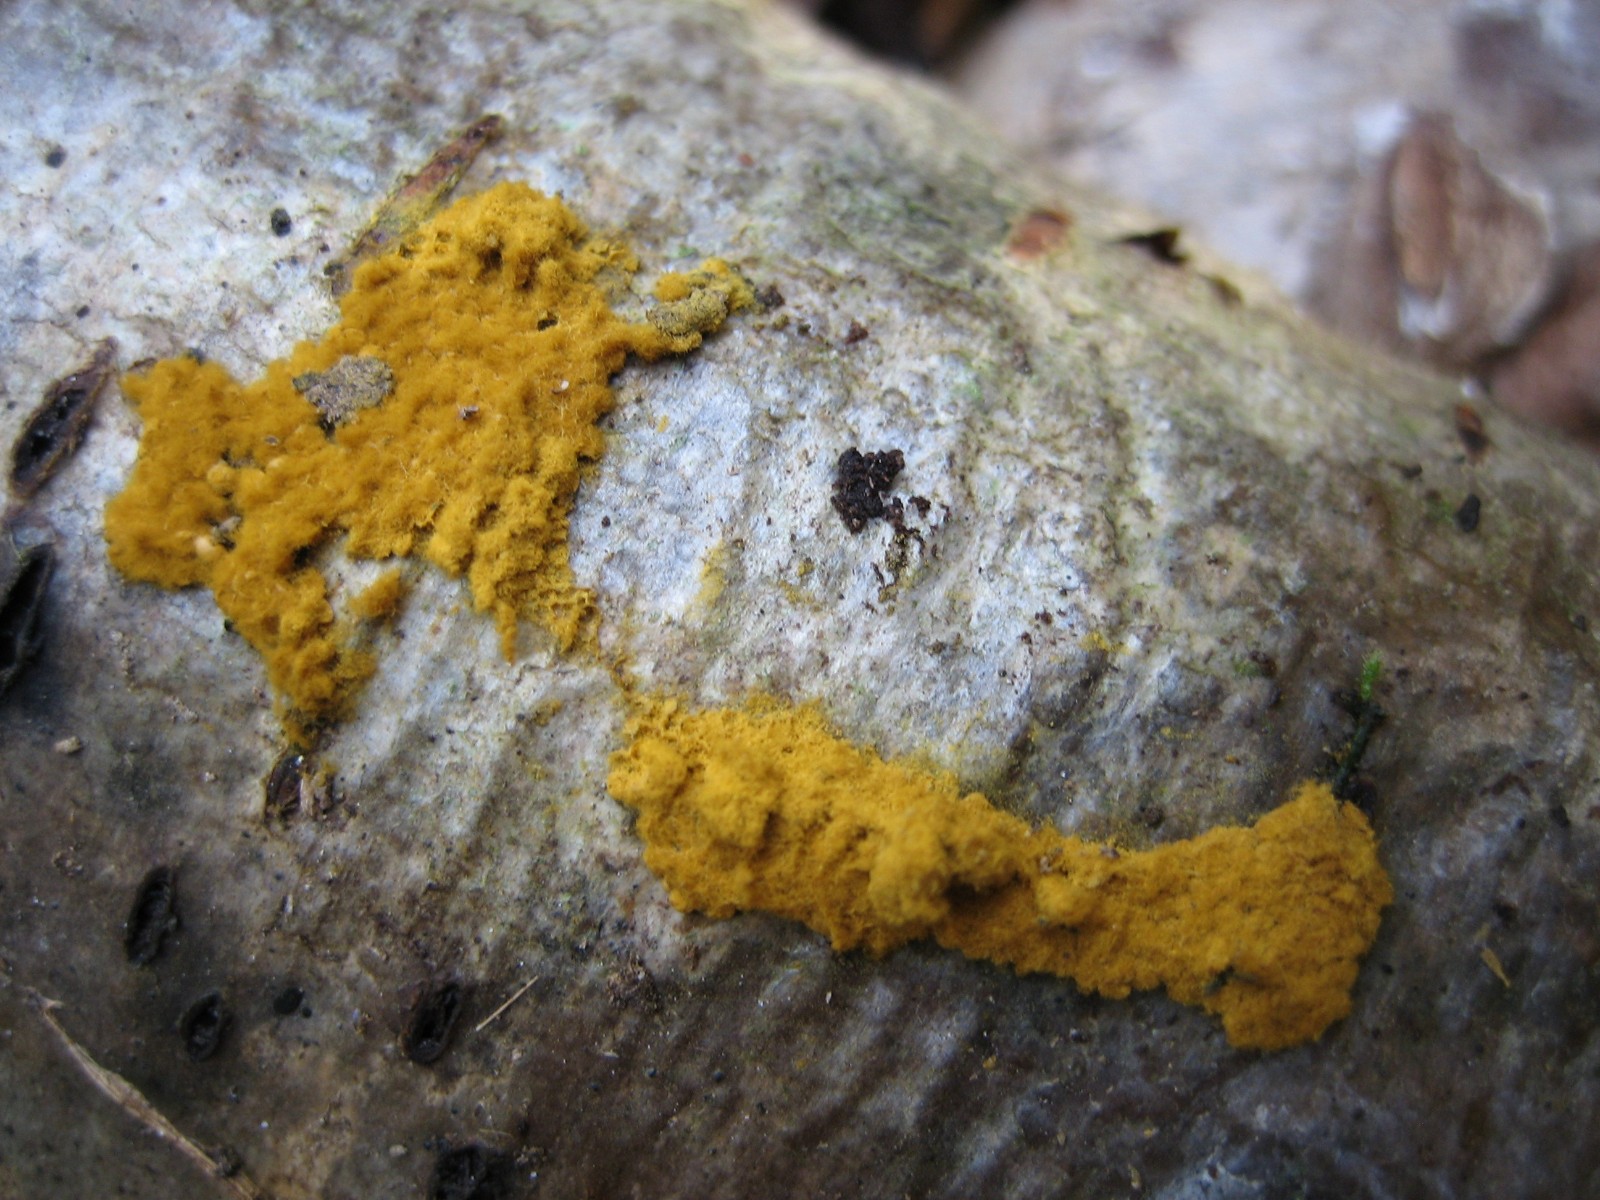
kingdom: Protozoa
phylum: Mycetozoa
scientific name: Mycetozoa
